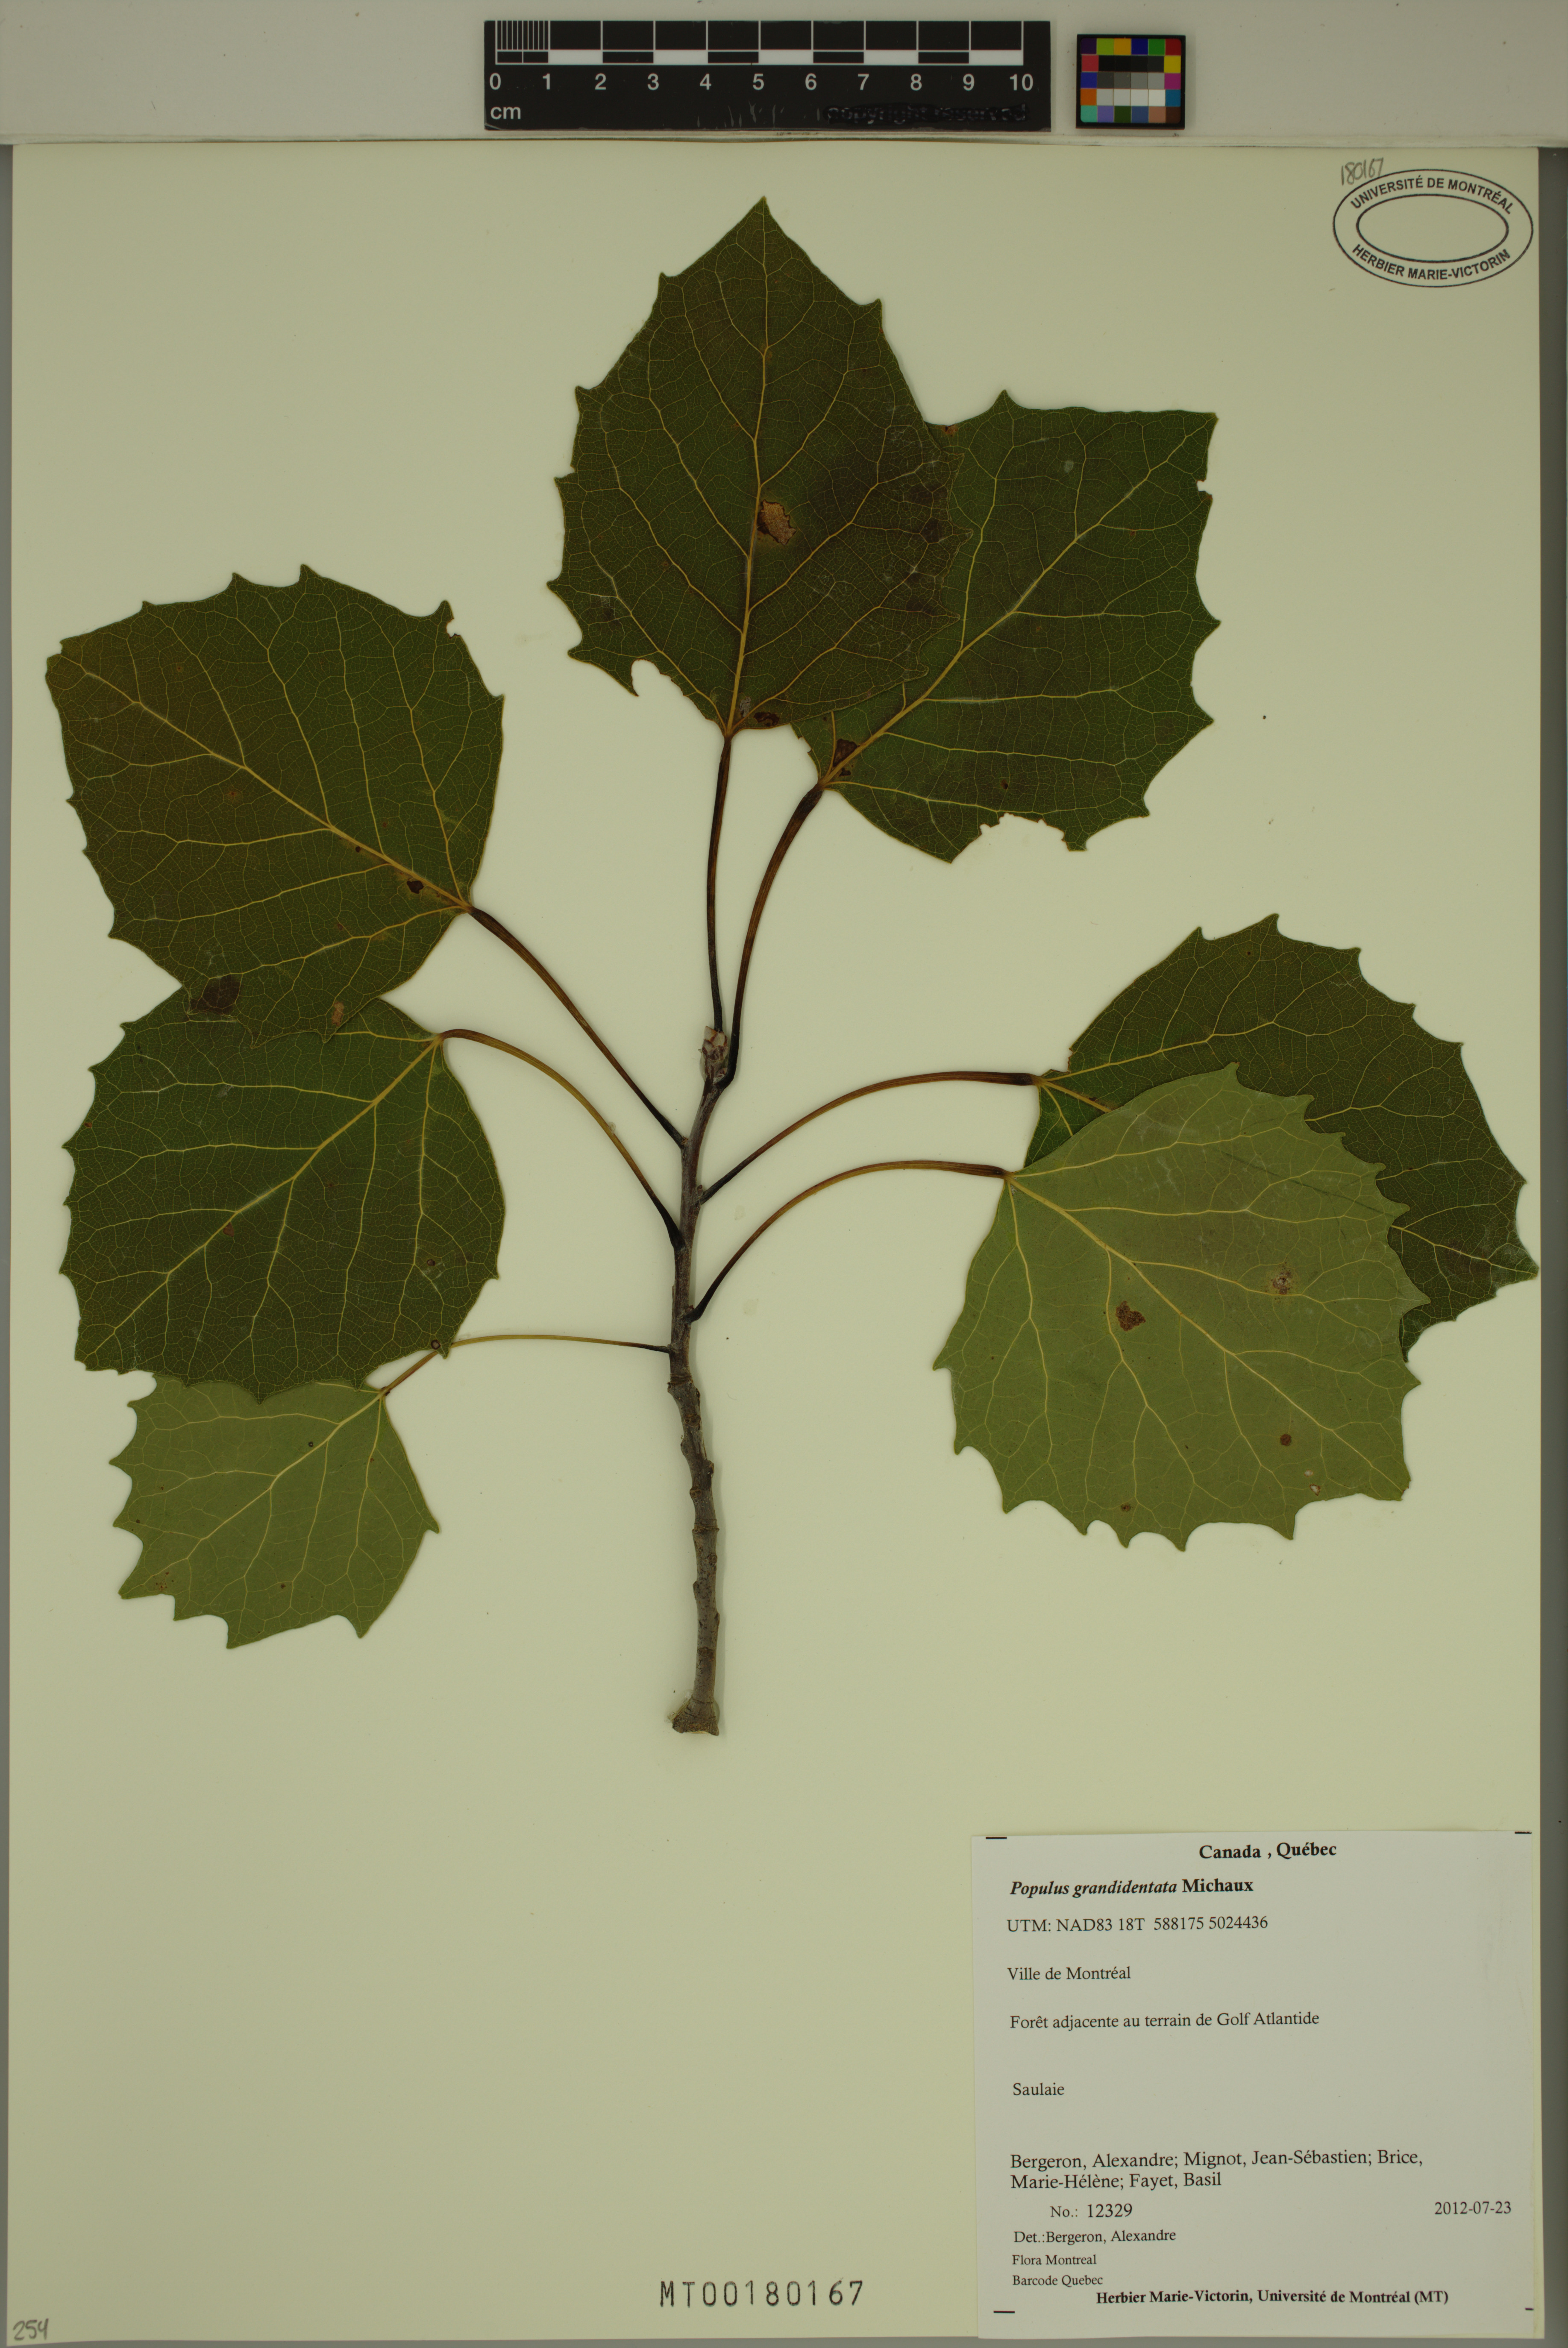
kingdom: Plantae
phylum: Tracheophyta
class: Magnoliopsida
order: Malpighiales
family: Salicaceae
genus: Populus
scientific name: Populus grandidentata
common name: Bigtooth aspen
